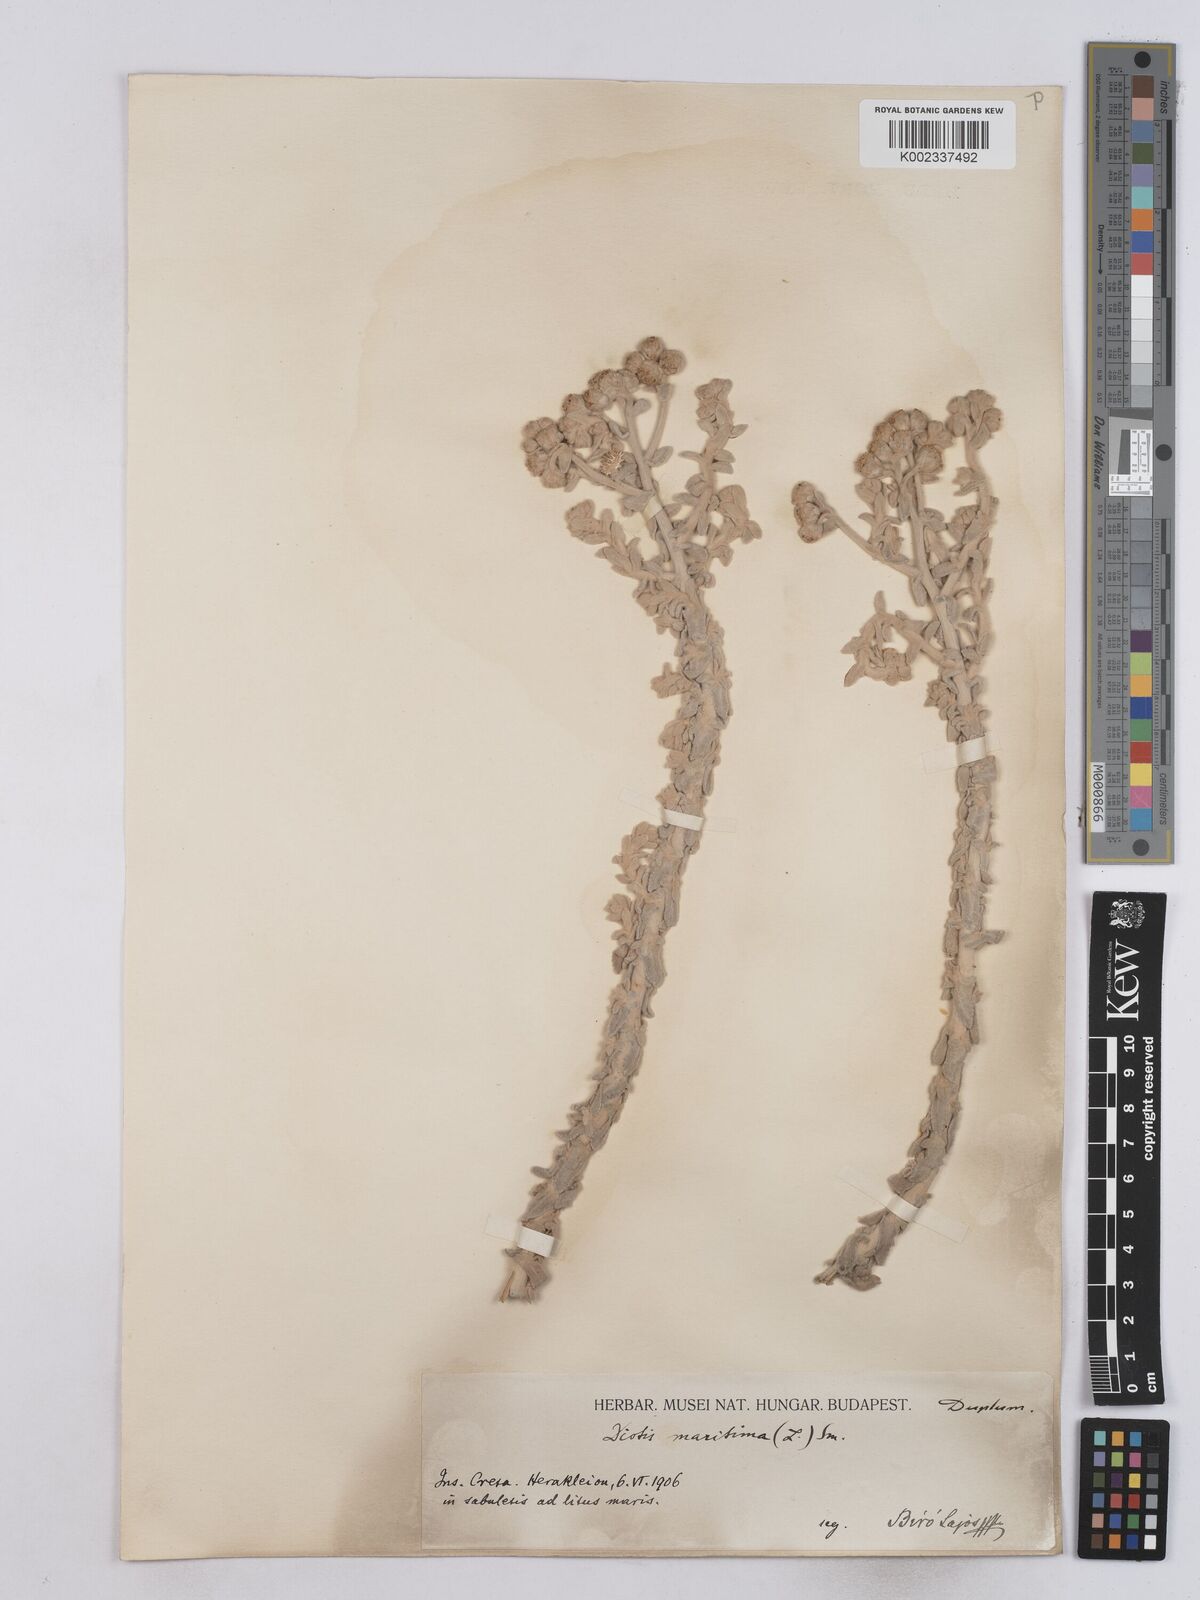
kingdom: Plantae
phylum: Tracheophyta
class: Magnoliopsida
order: Asterales
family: Asteraceae
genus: Achillea
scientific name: Achillea maritima
